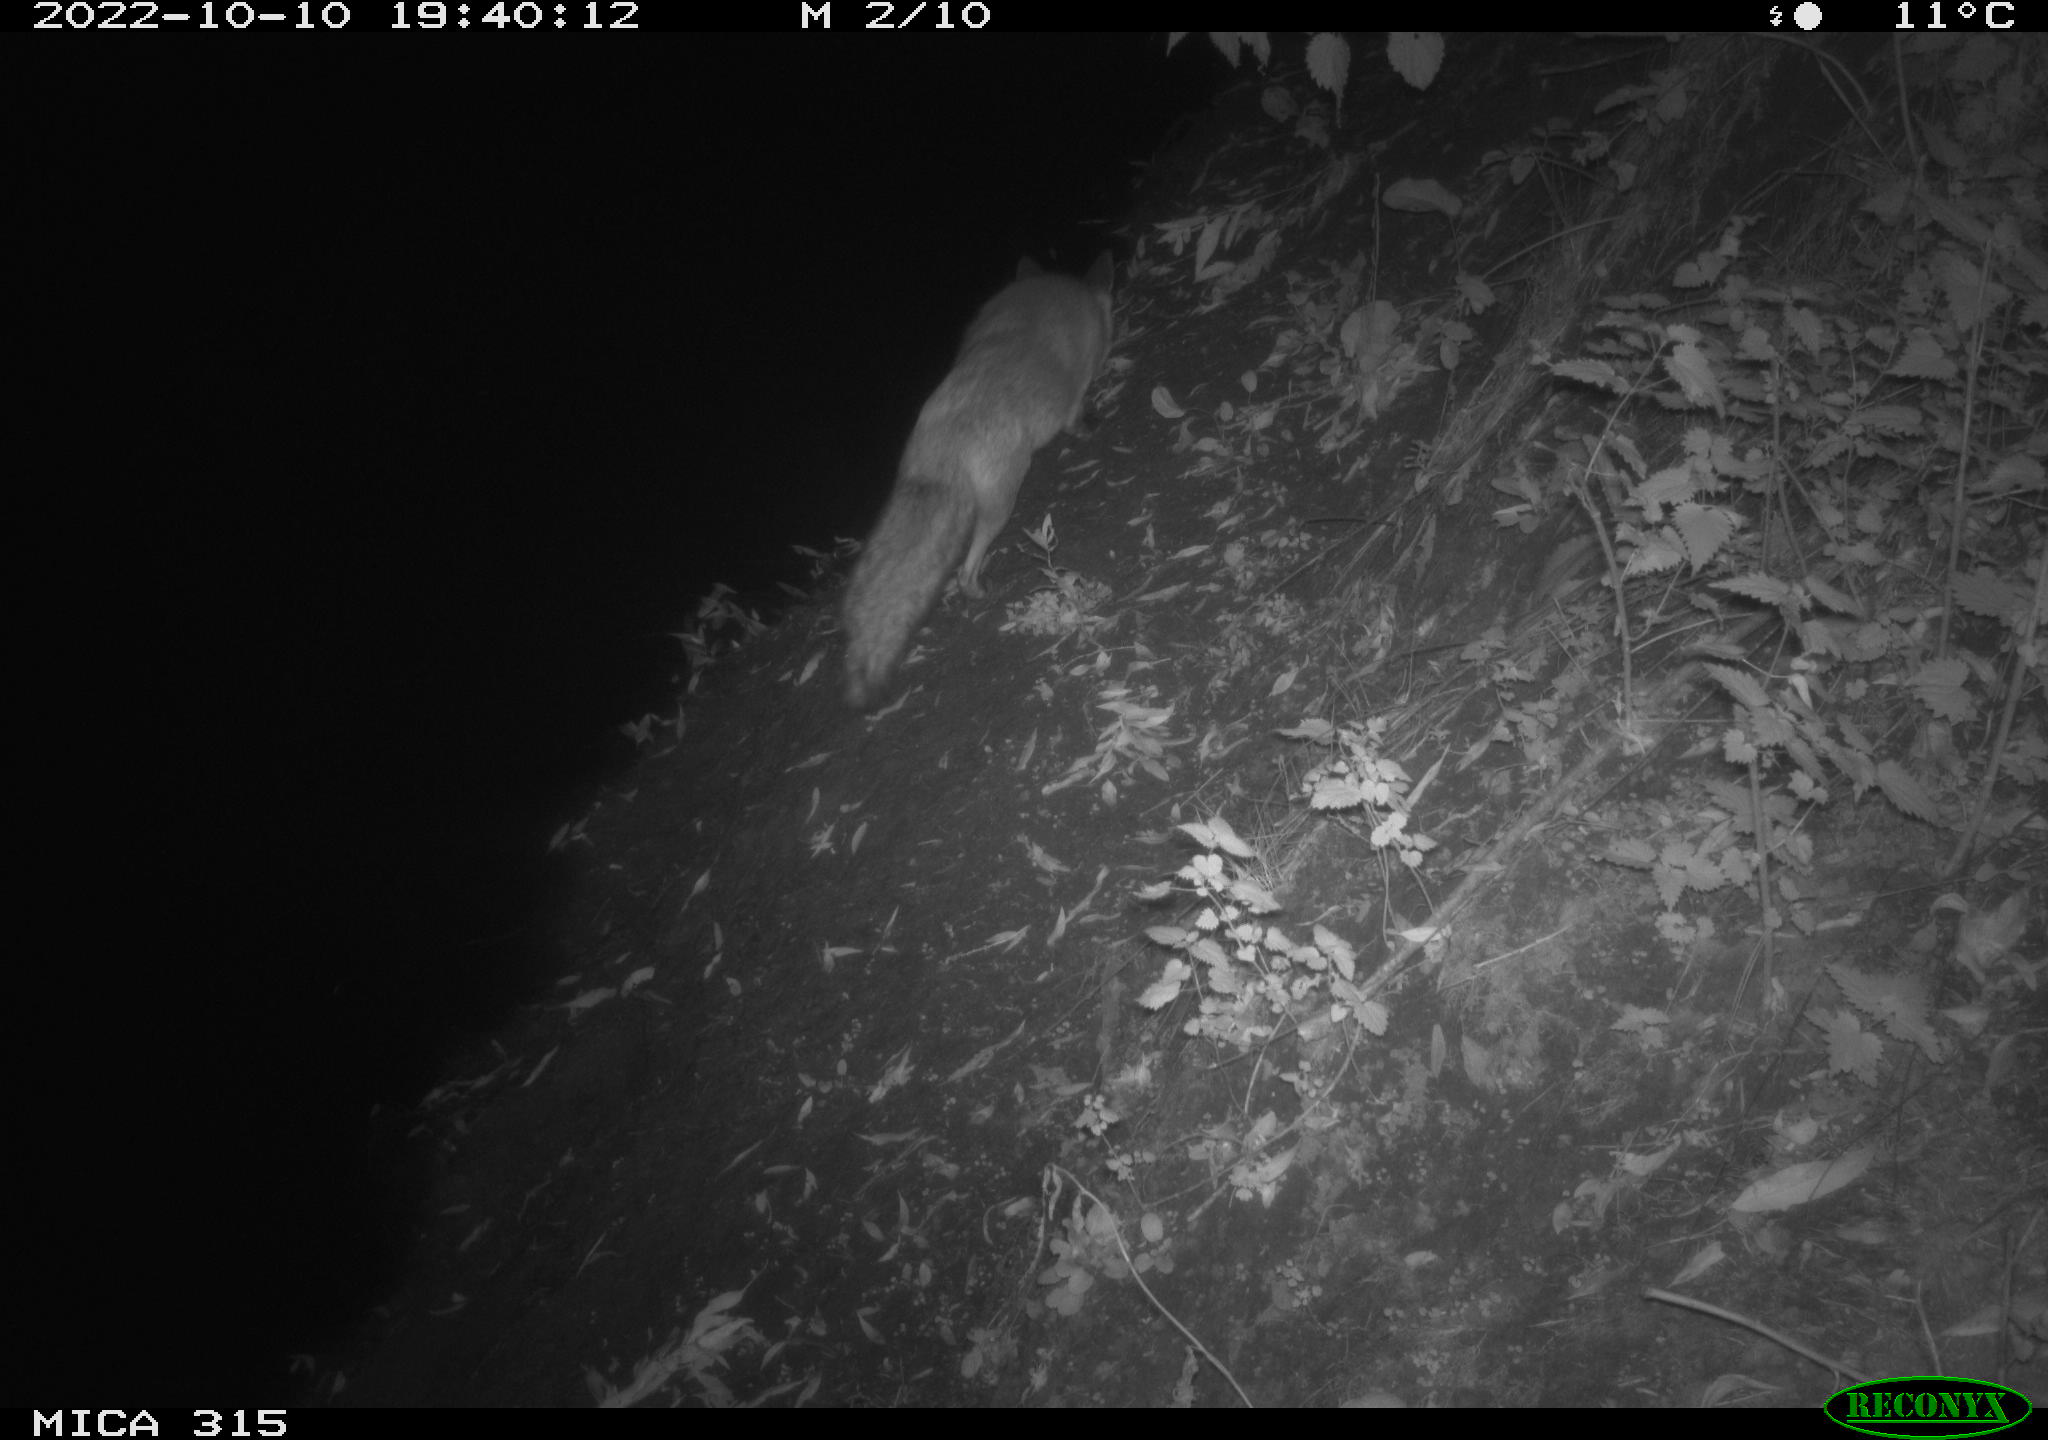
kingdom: Animalia
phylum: Chordata
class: Mammalia
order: Carnivora
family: Canidae
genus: Vulpes
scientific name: Vulpes vulpes
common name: Red fox
